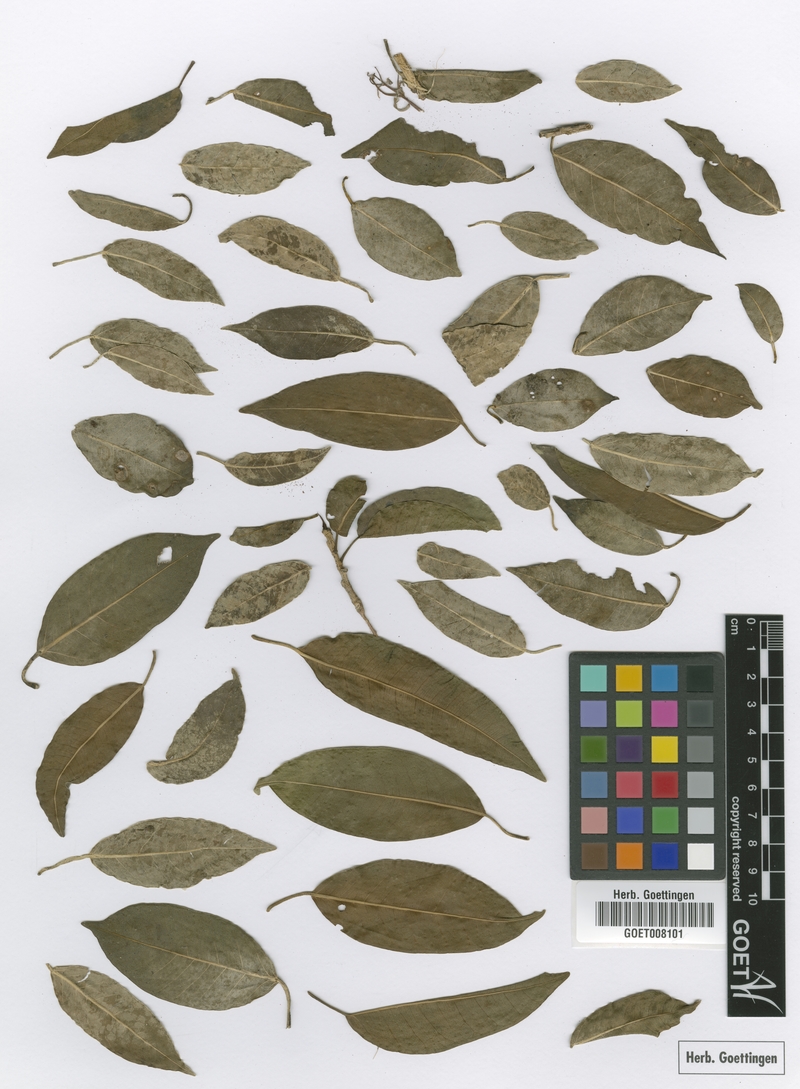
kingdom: Plantae
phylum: Tracheophyta
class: Magnoliopsida
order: Rosales
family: Moraceae
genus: Ficus
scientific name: Ficus pertusa
